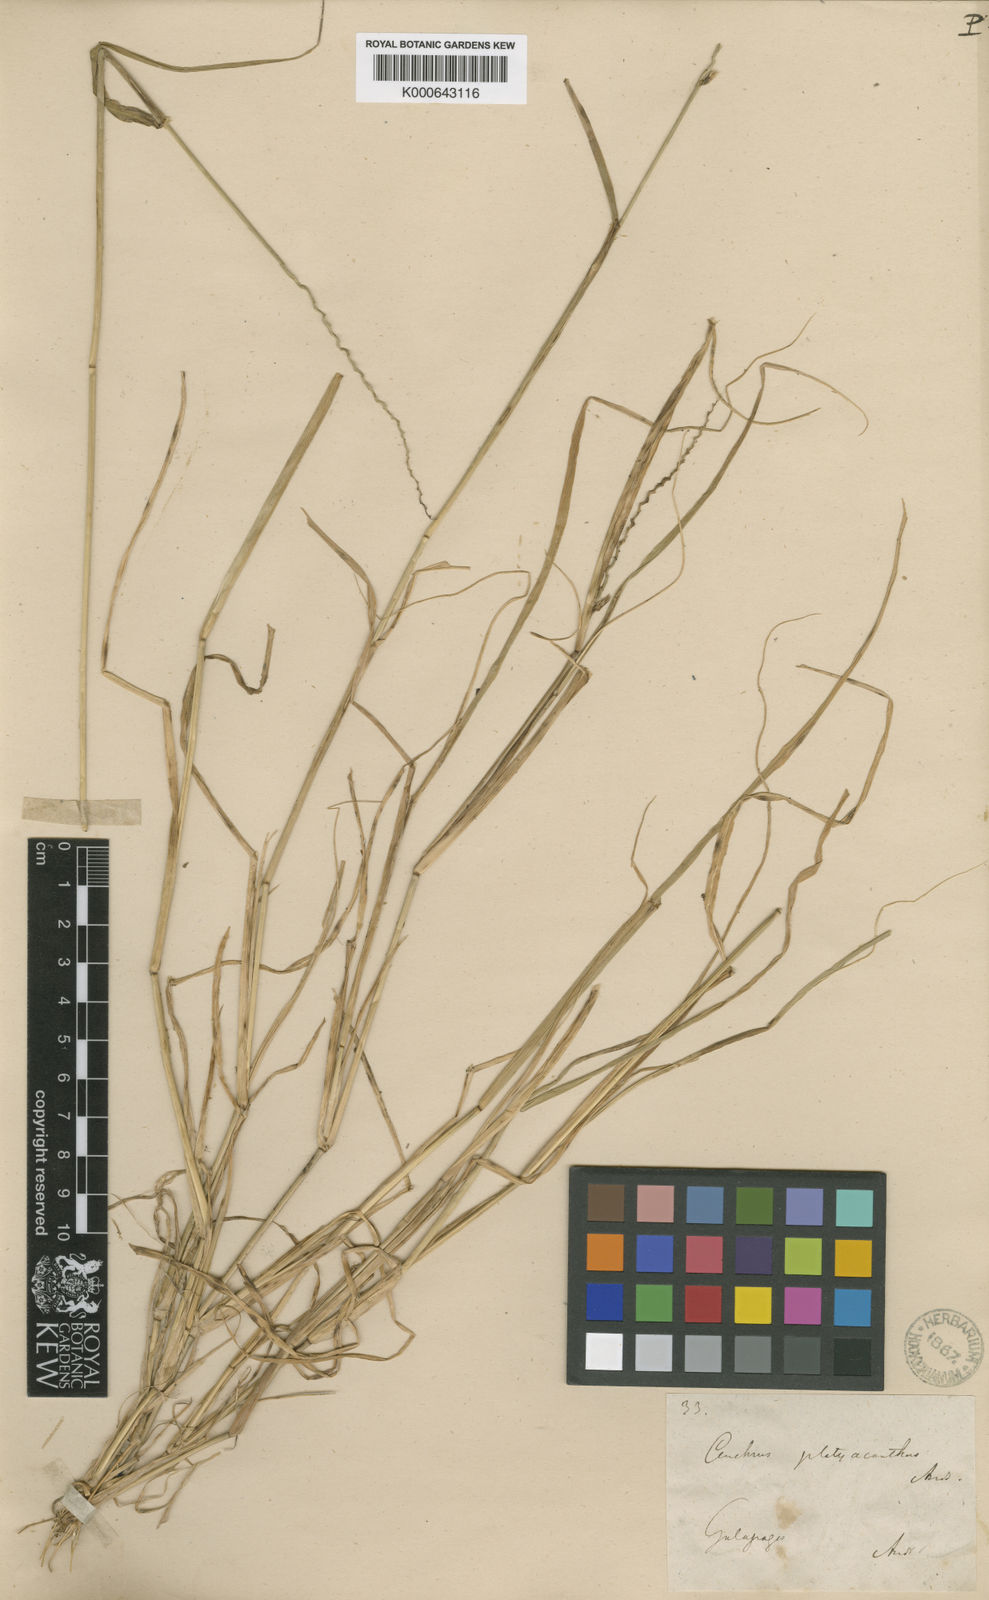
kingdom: Plantae
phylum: Tracheophyta
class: Liliopsida
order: Poales
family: Poaceae
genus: Cenchrus
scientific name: Cenchrus platyacanthus
